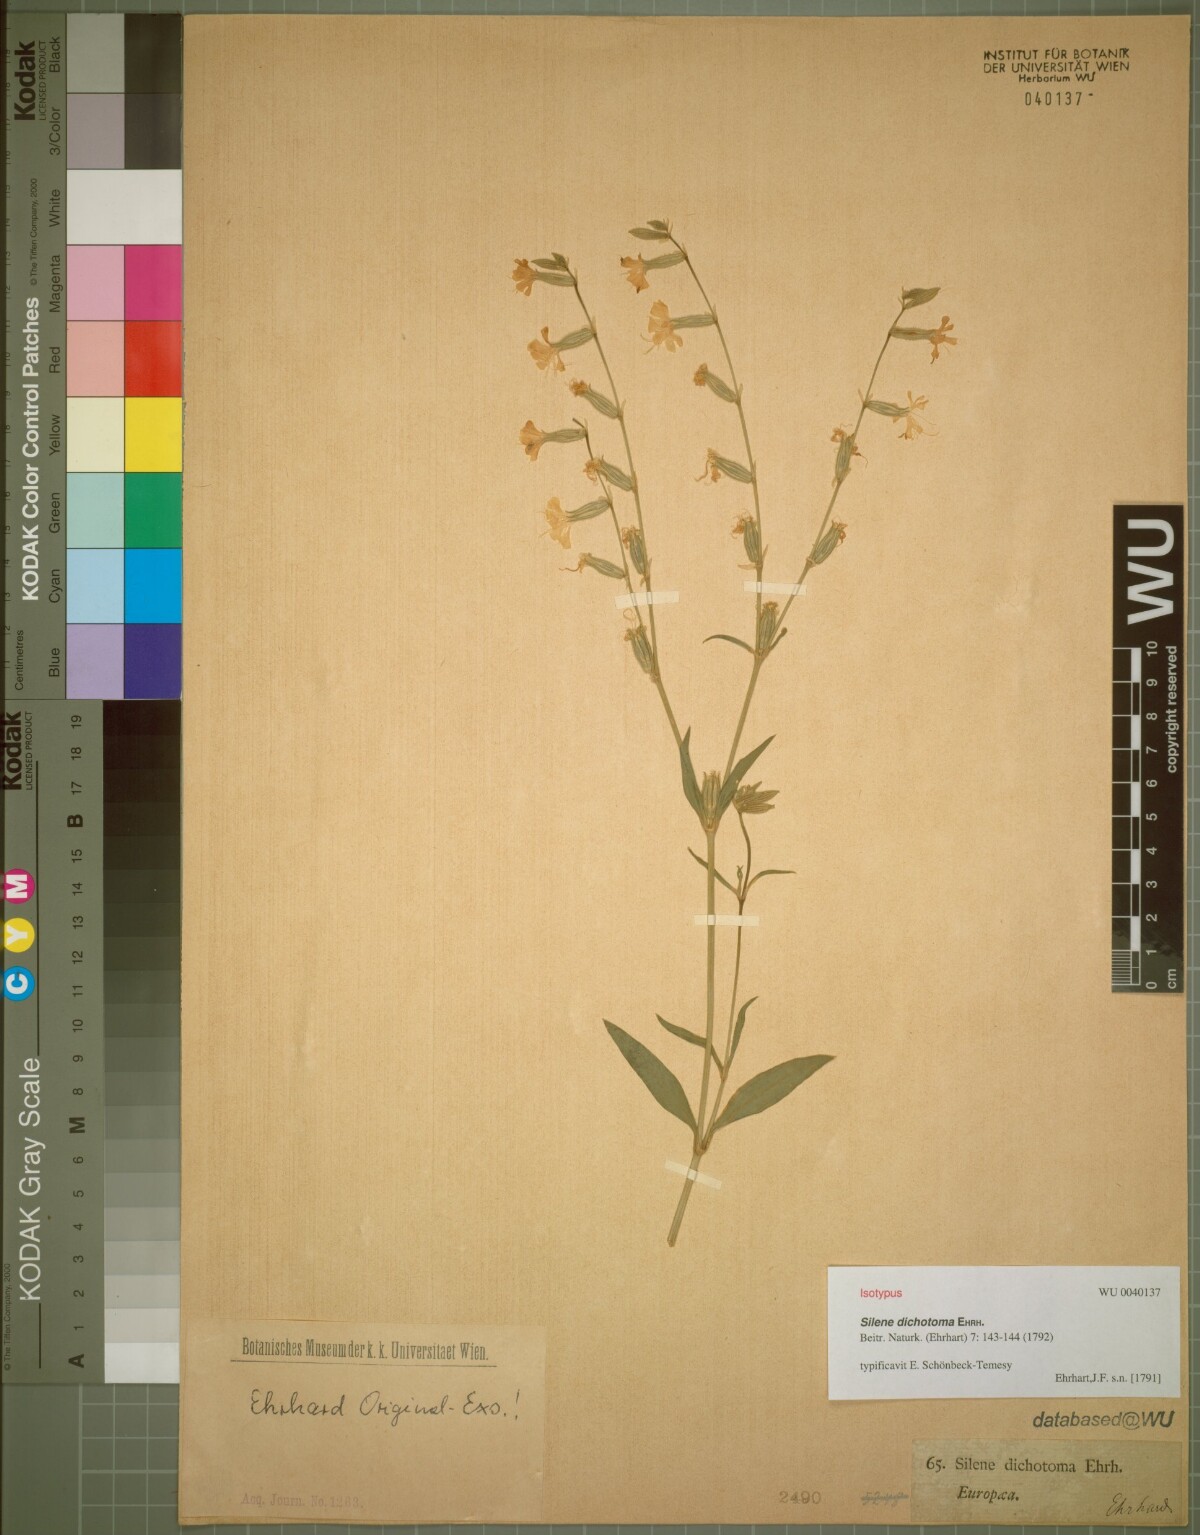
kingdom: Plantae
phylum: Tracheophyta
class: Magnoliopsida
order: Caryophyllales
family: Caryophyllaceae
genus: Silene
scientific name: Silene dichotoma
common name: Forked catchfly
